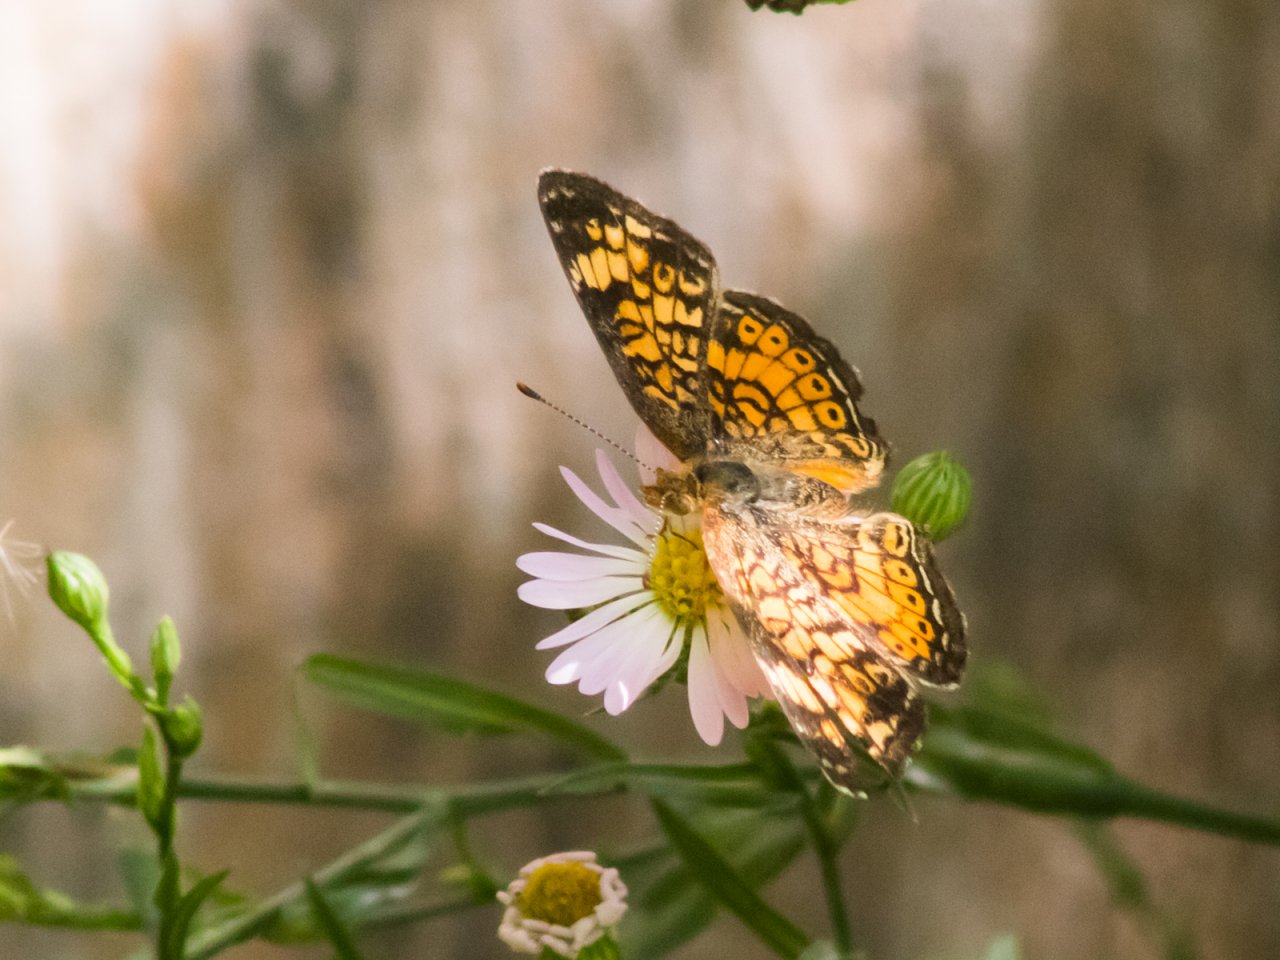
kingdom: Animalia
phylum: Arthropoda
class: Insecta
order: Lepidoptera
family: Nymphalidae
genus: Phyciodes
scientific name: Phyciodes tharos
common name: Pearl Crescent
